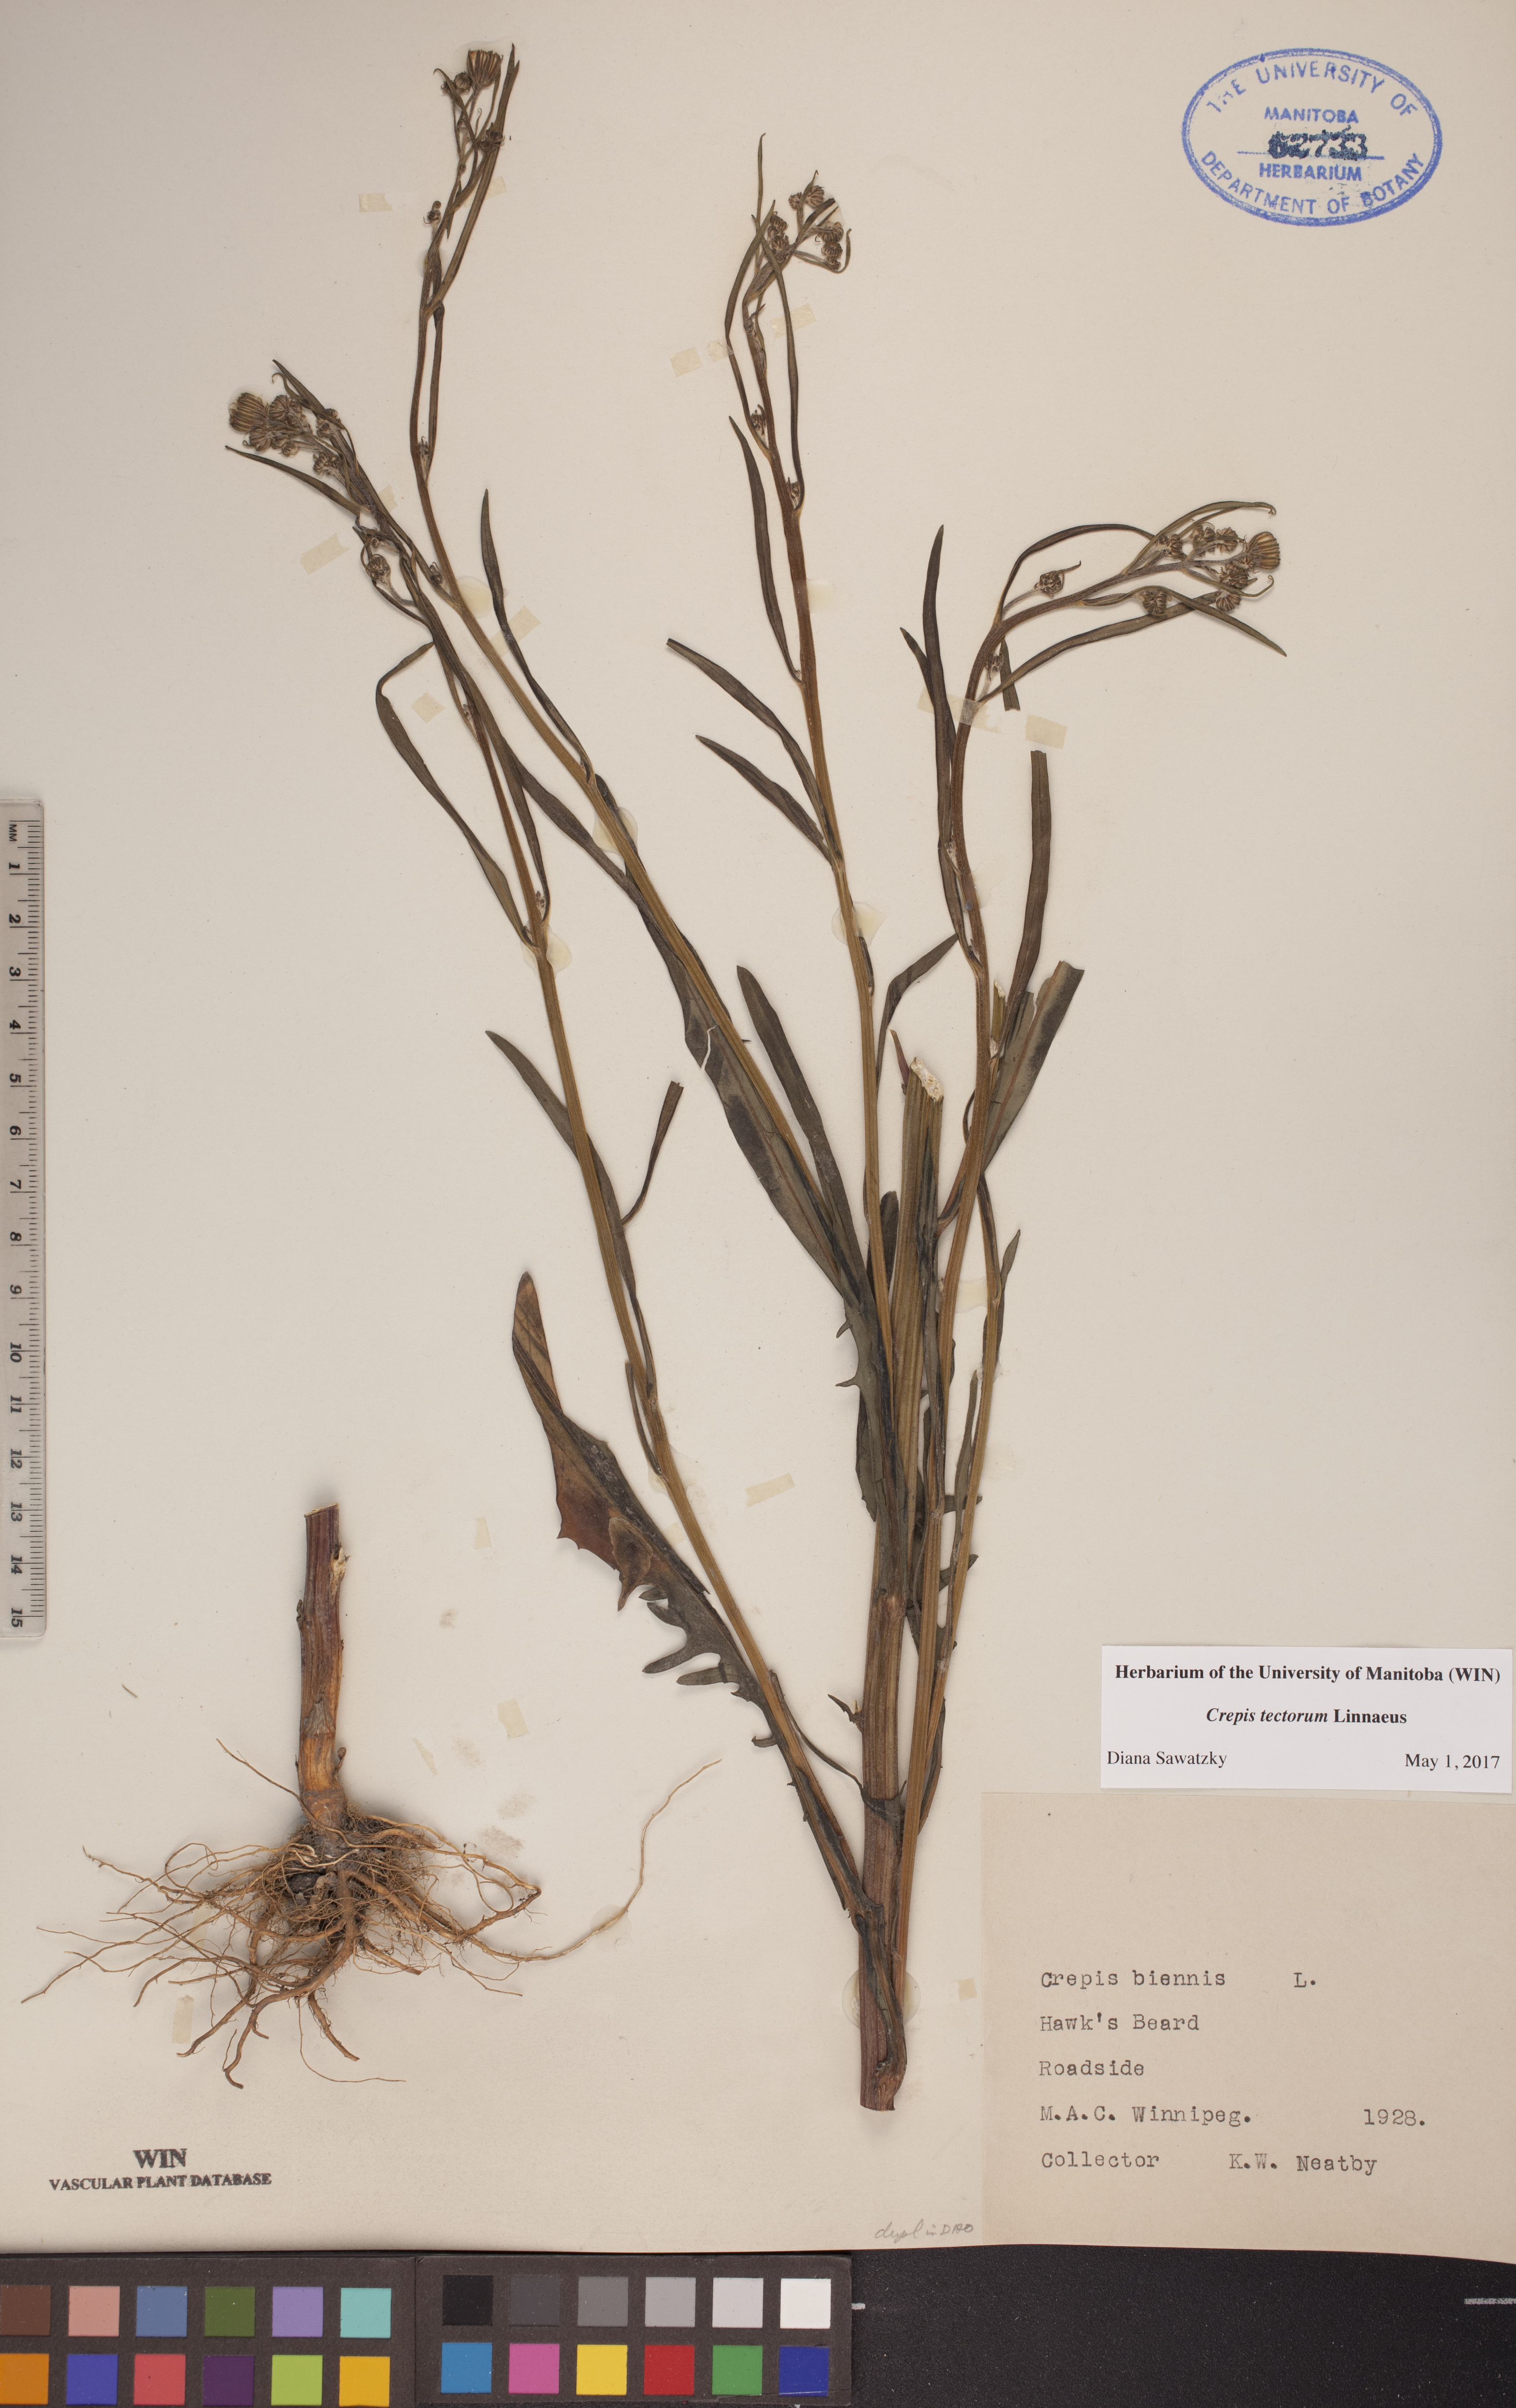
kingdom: Plantae
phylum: Tracheophyta
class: Magnoliopsida
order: Asterales
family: Asteraceae
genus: Crepis
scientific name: Crepis tectorum
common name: Narrow-leaved hawk's-beard
